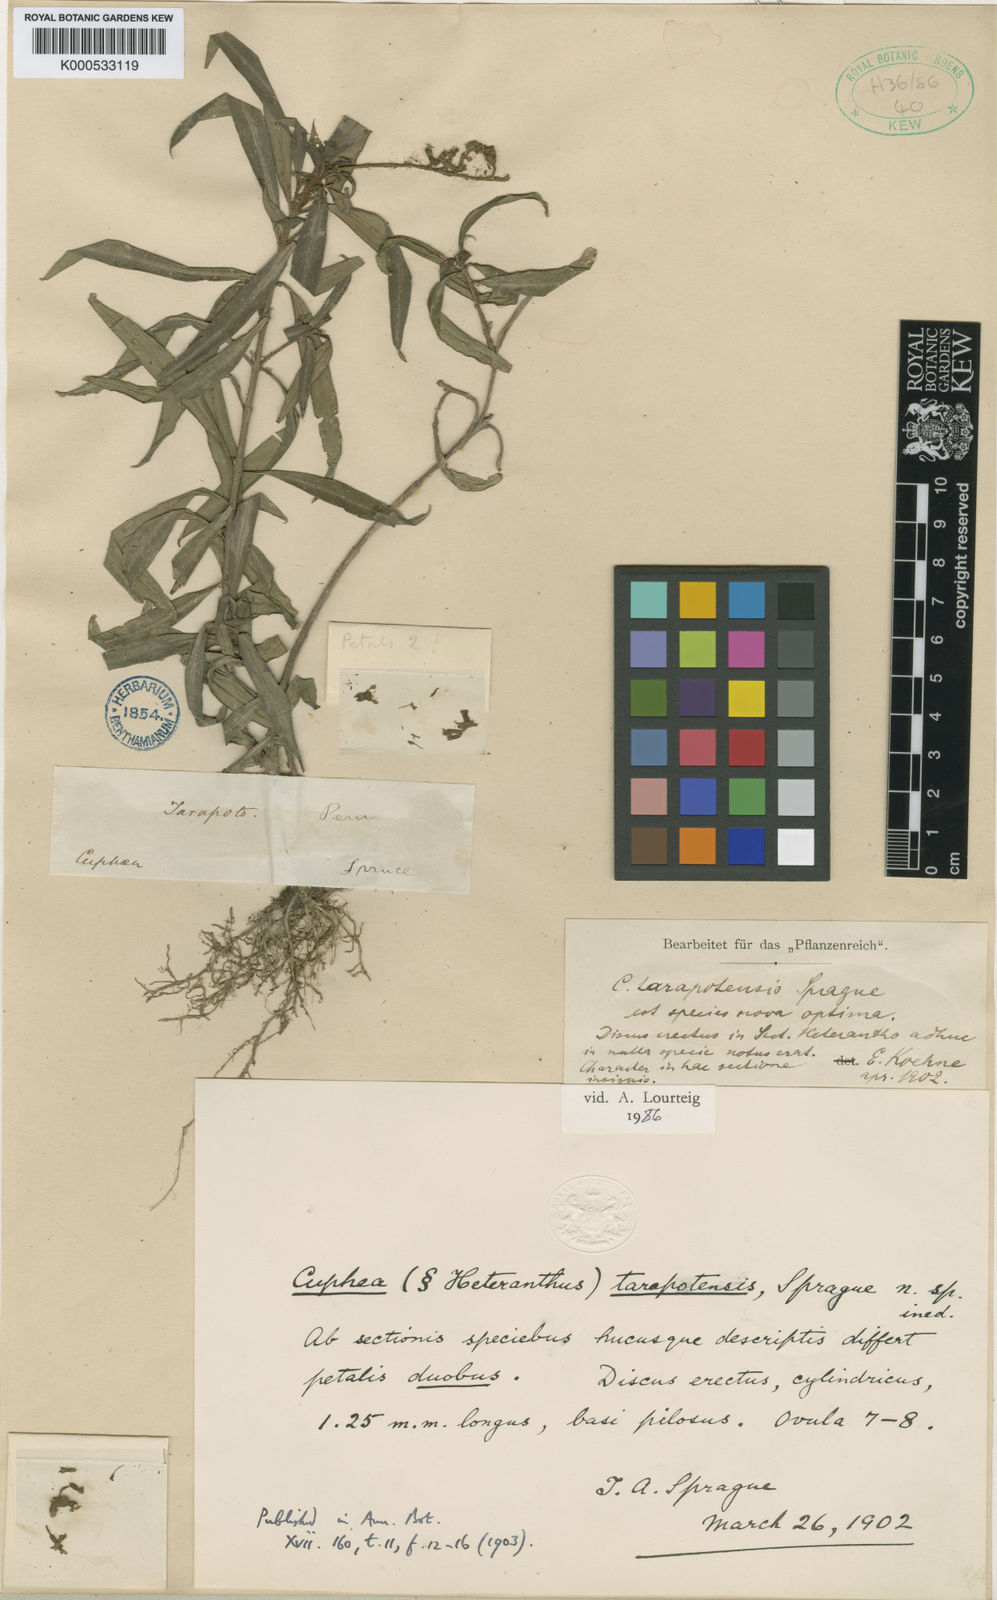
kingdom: Plantae
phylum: Tracheophyta
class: Magnoliopsida
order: Myrtales
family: Lythraceae
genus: Cuphea
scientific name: Cuphea tarapotensis
